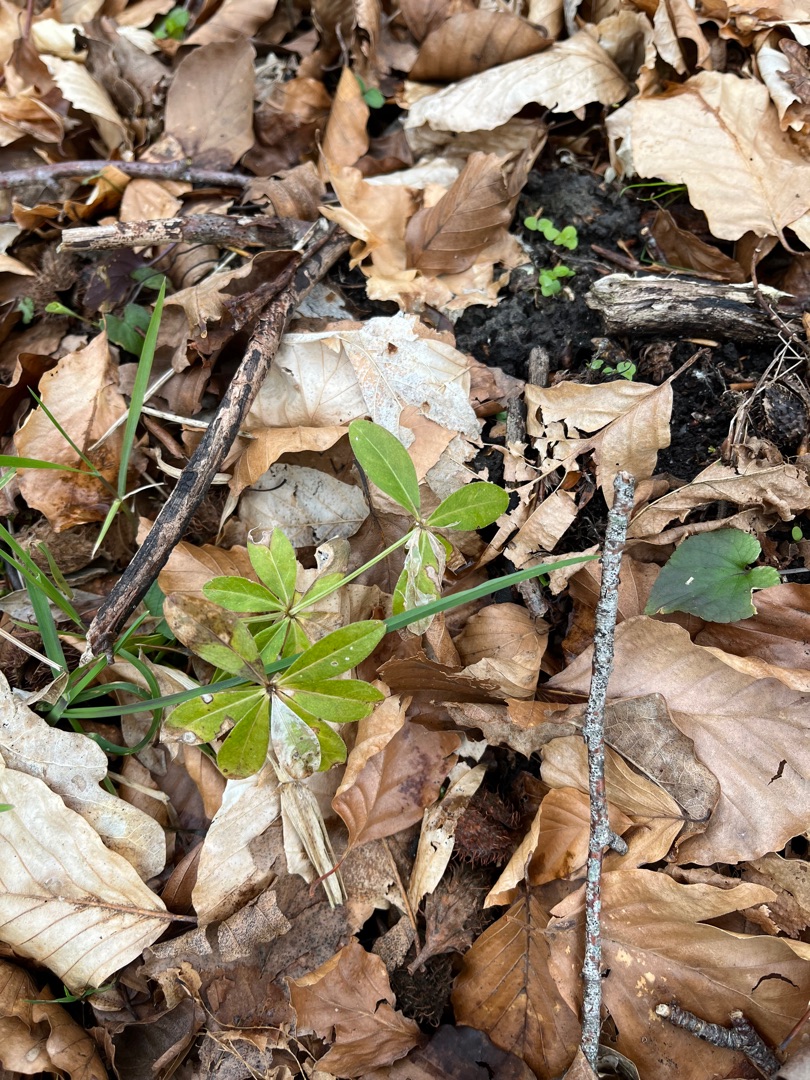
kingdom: Plantae
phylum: Tracheophyta
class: Magnoliopsida
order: Gentianales
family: Rubiaceae
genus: Galium
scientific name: Galium odoratum
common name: Skovmærke
